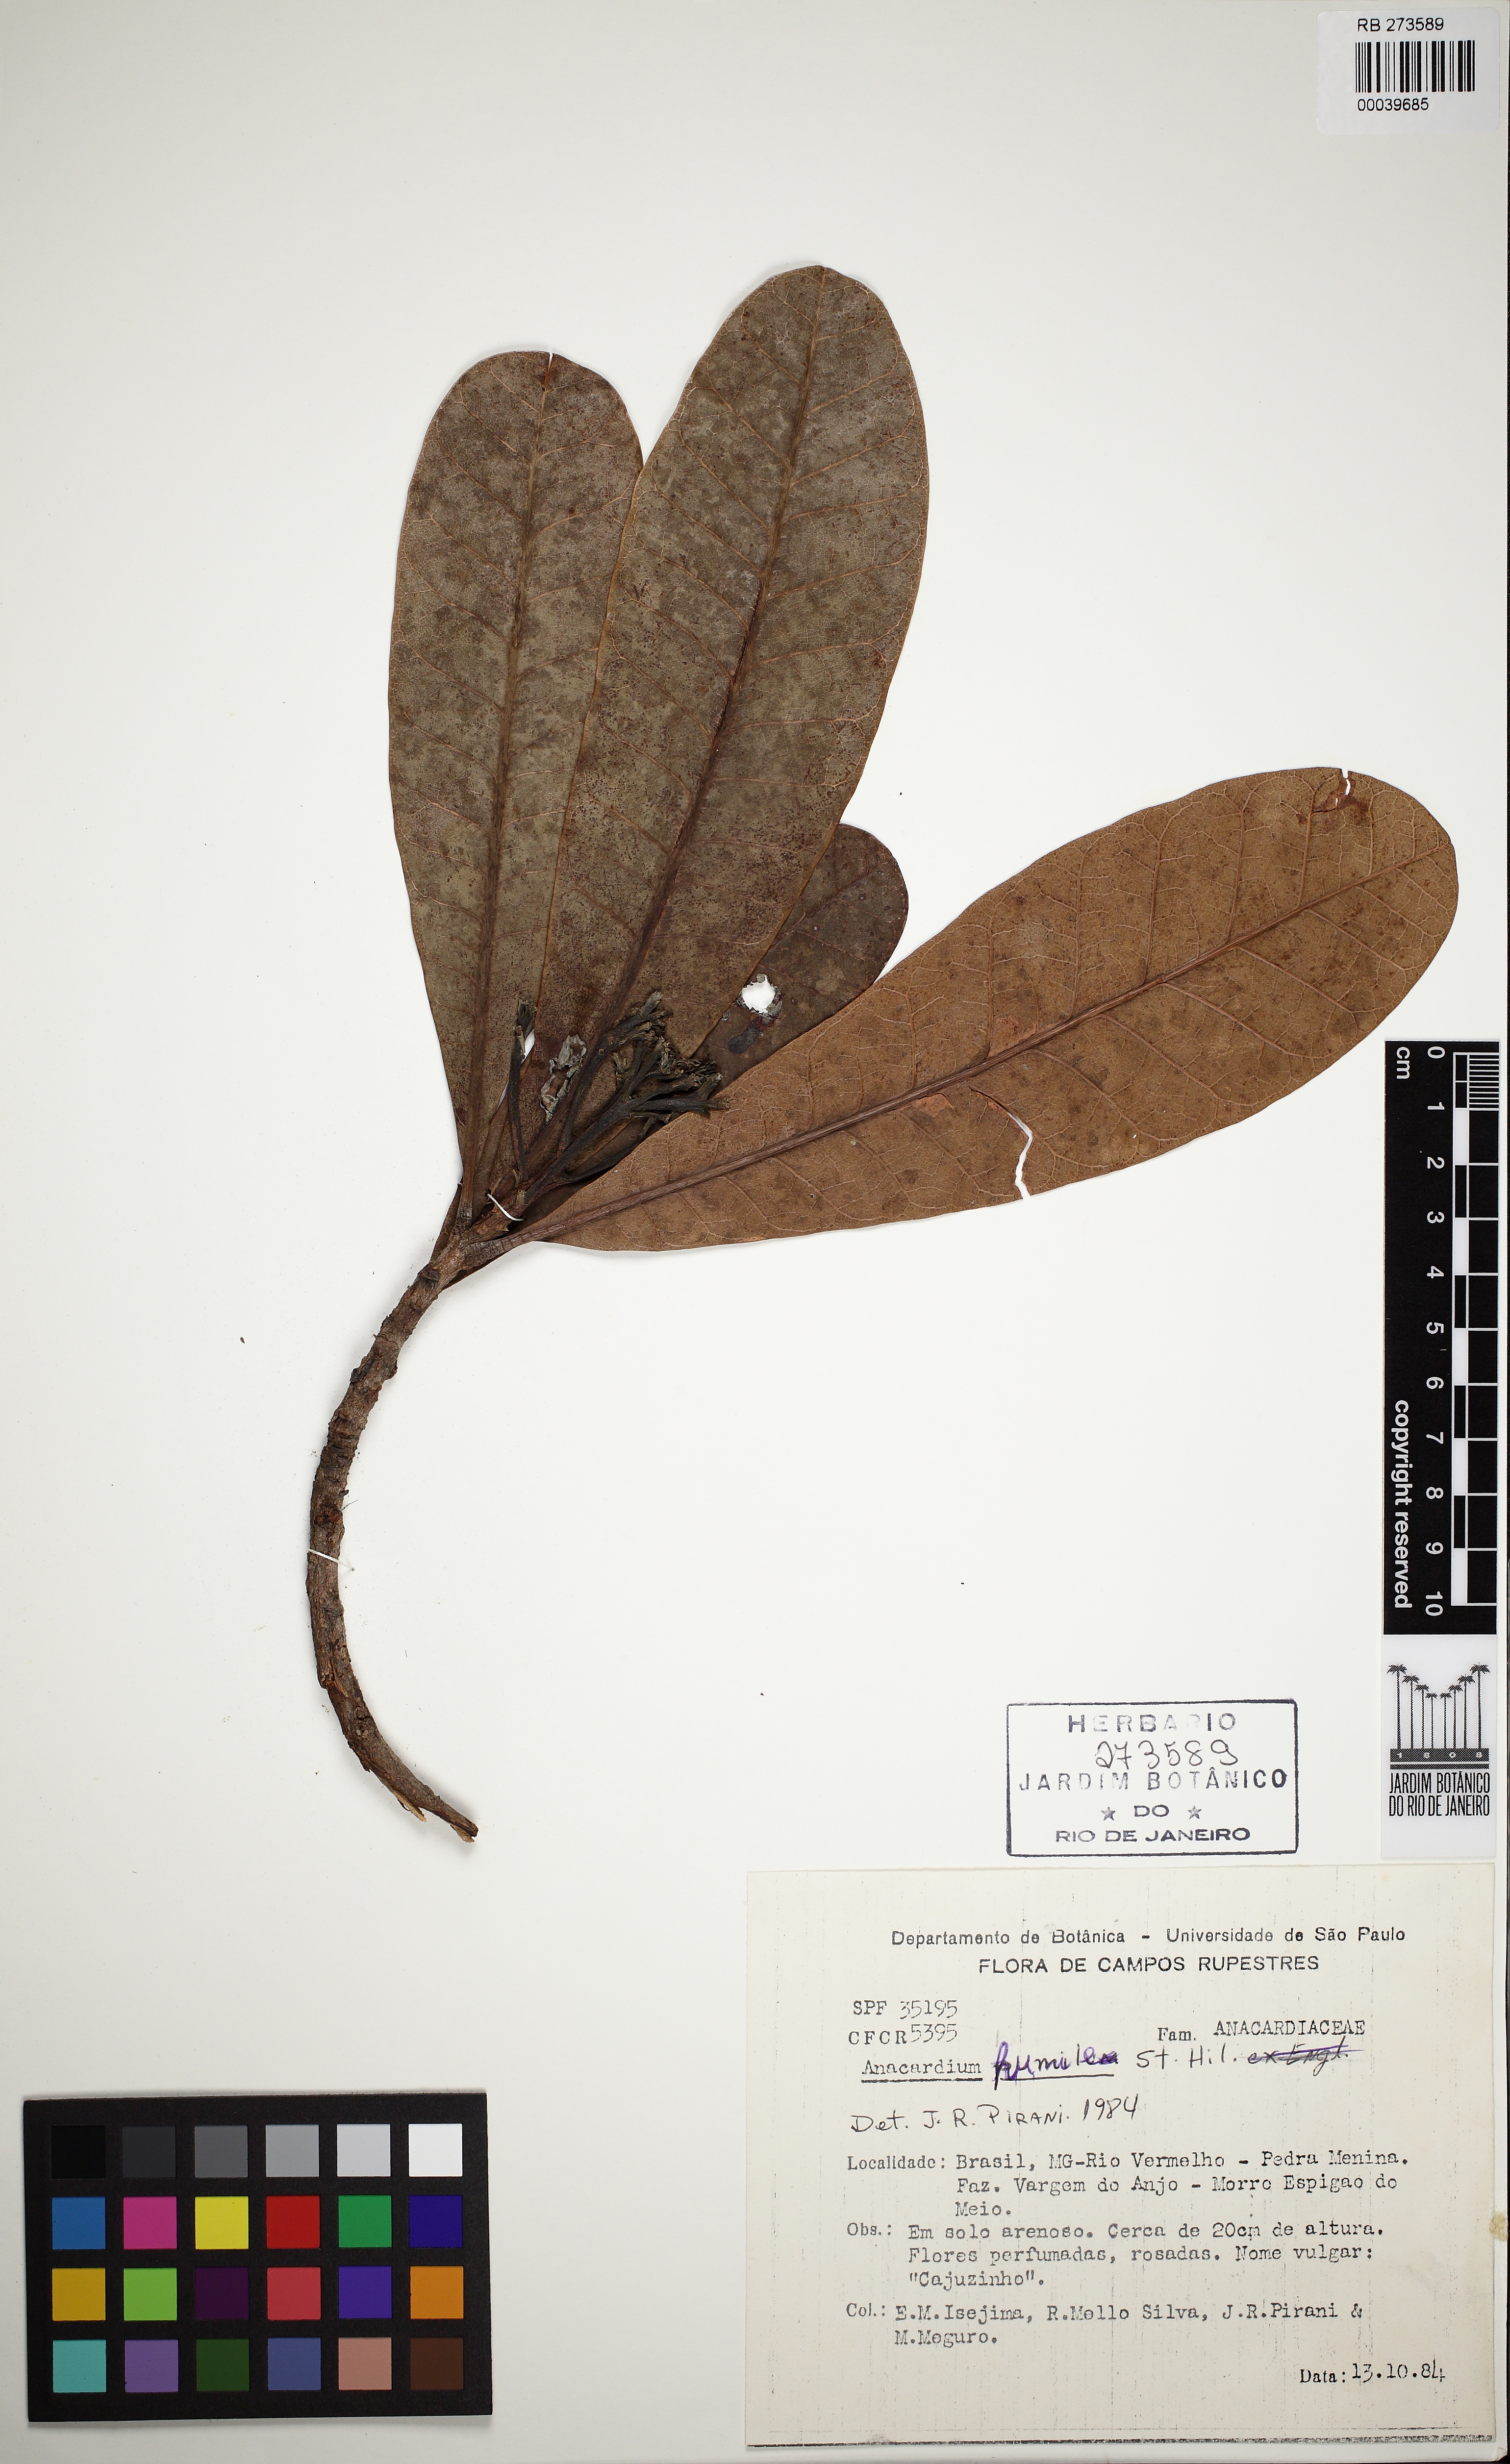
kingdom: Plantae
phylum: Tracheophyta
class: Magnoliopsida
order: Sapindales
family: Anacardiaceae
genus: Anacardium
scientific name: Anacardium humile
